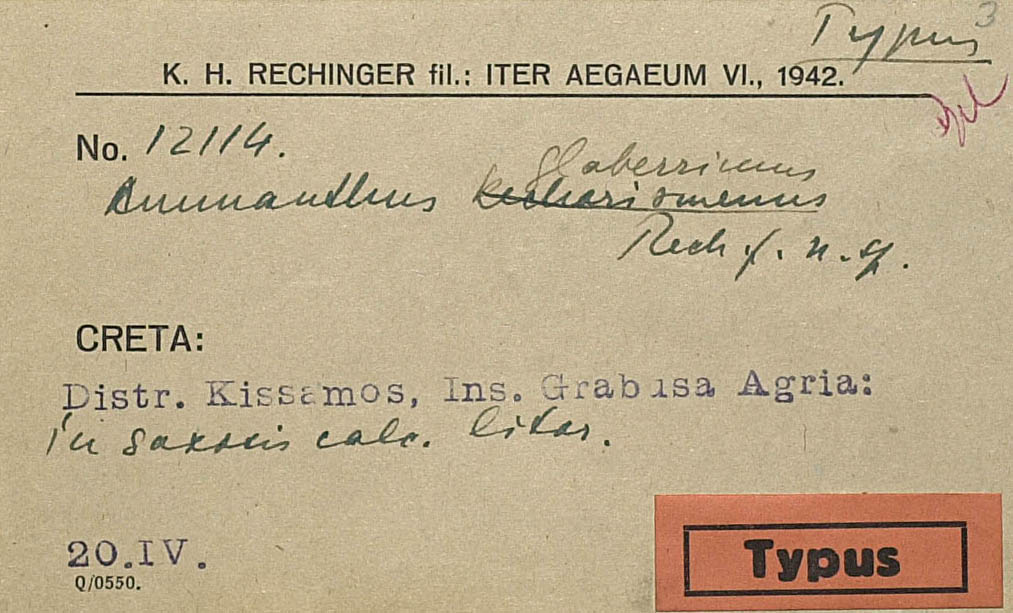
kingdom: Plantae
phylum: Tracheophyta
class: Magnoliopsida
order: Asterales
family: Asteraceae
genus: Anthemis
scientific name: Anthemis glaberrima
